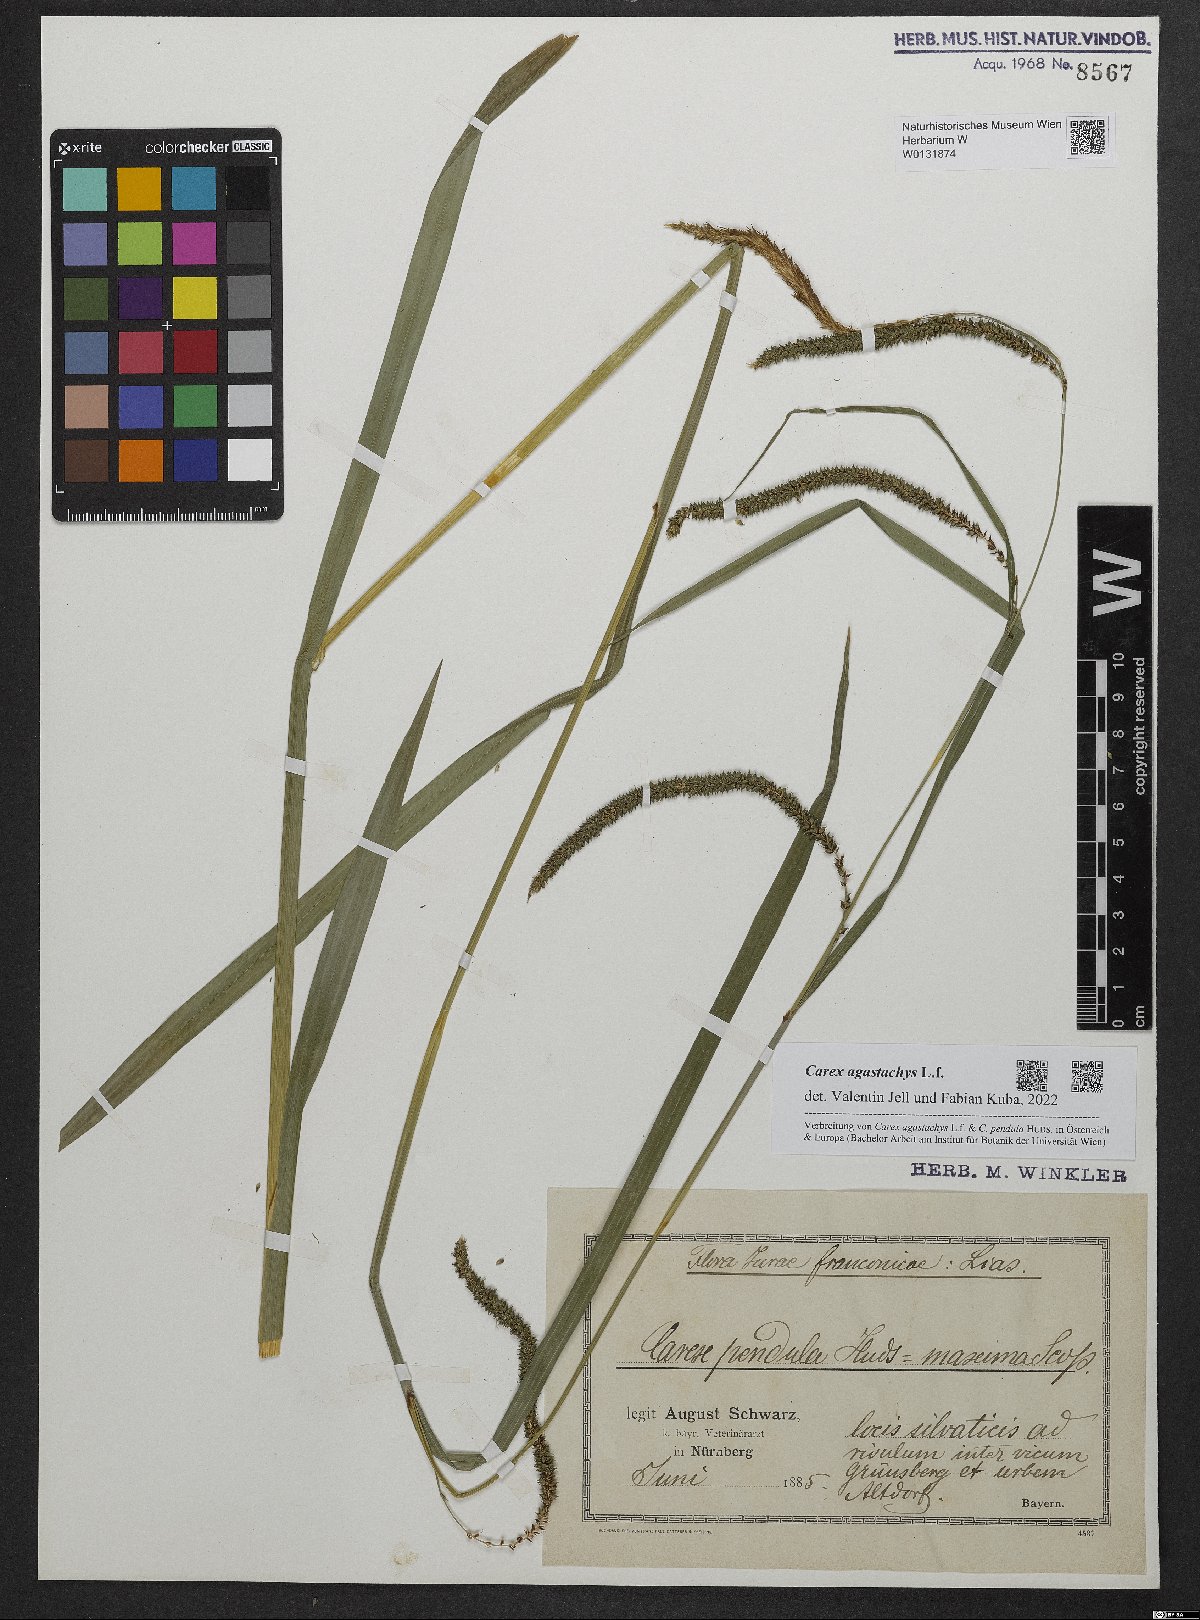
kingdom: Plantae
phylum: Tracheophyta
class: Liliopsida
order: Poales
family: Cyperaceae
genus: Carex
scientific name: Carex agastachys
